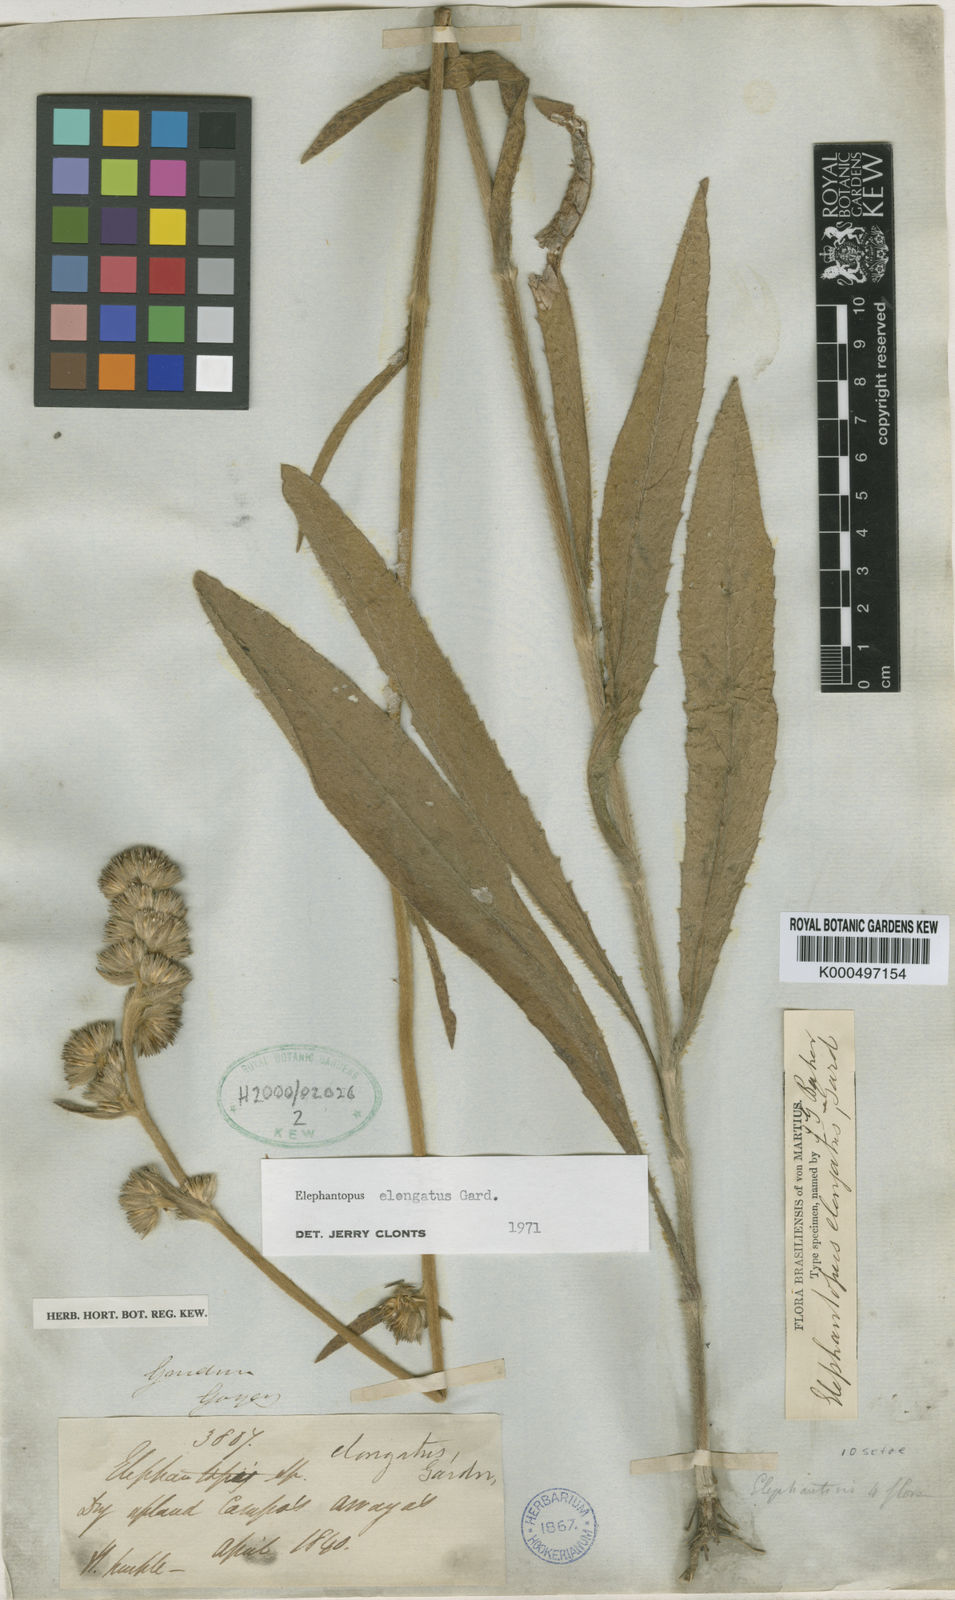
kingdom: Plantae
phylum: Tracheophyta
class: Magnoliopsida
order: Asterales
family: Asteraceae
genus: Elephantopus
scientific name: Elephantopus elongatus
